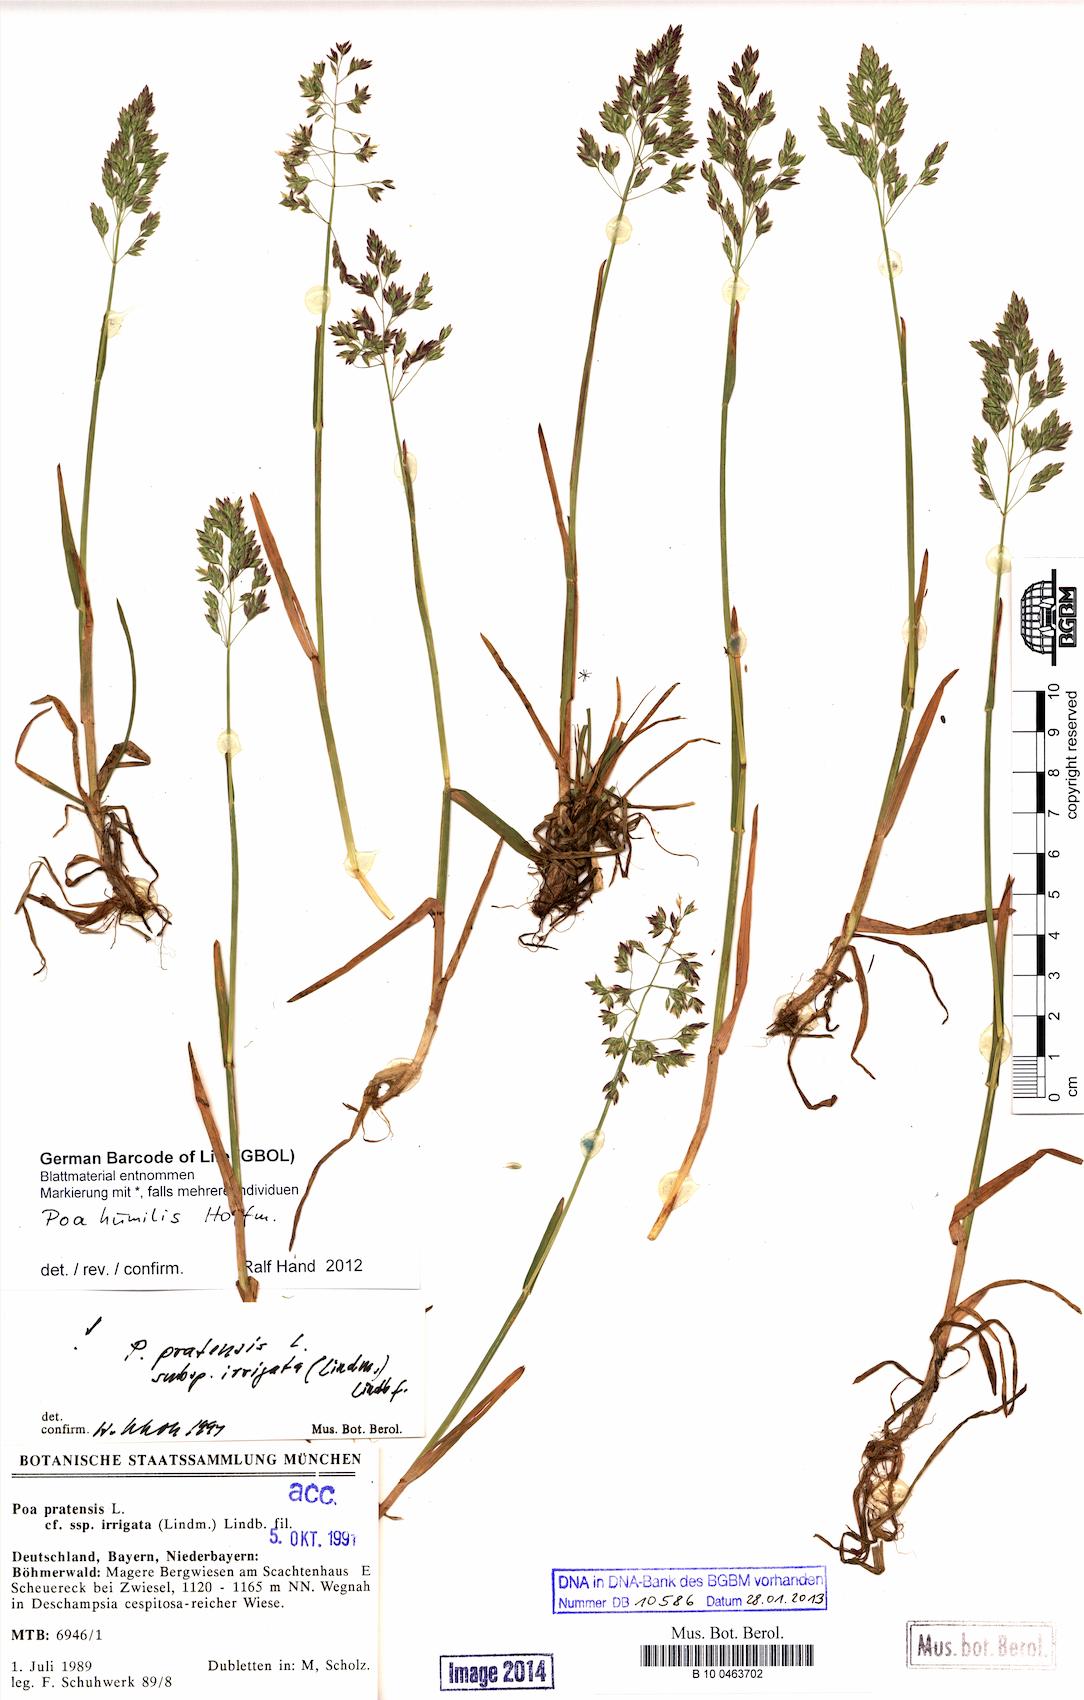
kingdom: Plantae
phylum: Tracheophyta
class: Liliopsida
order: Poales
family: Poaceae
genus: Poa
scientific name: Poa humilis
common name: Spreading meadow-grass
